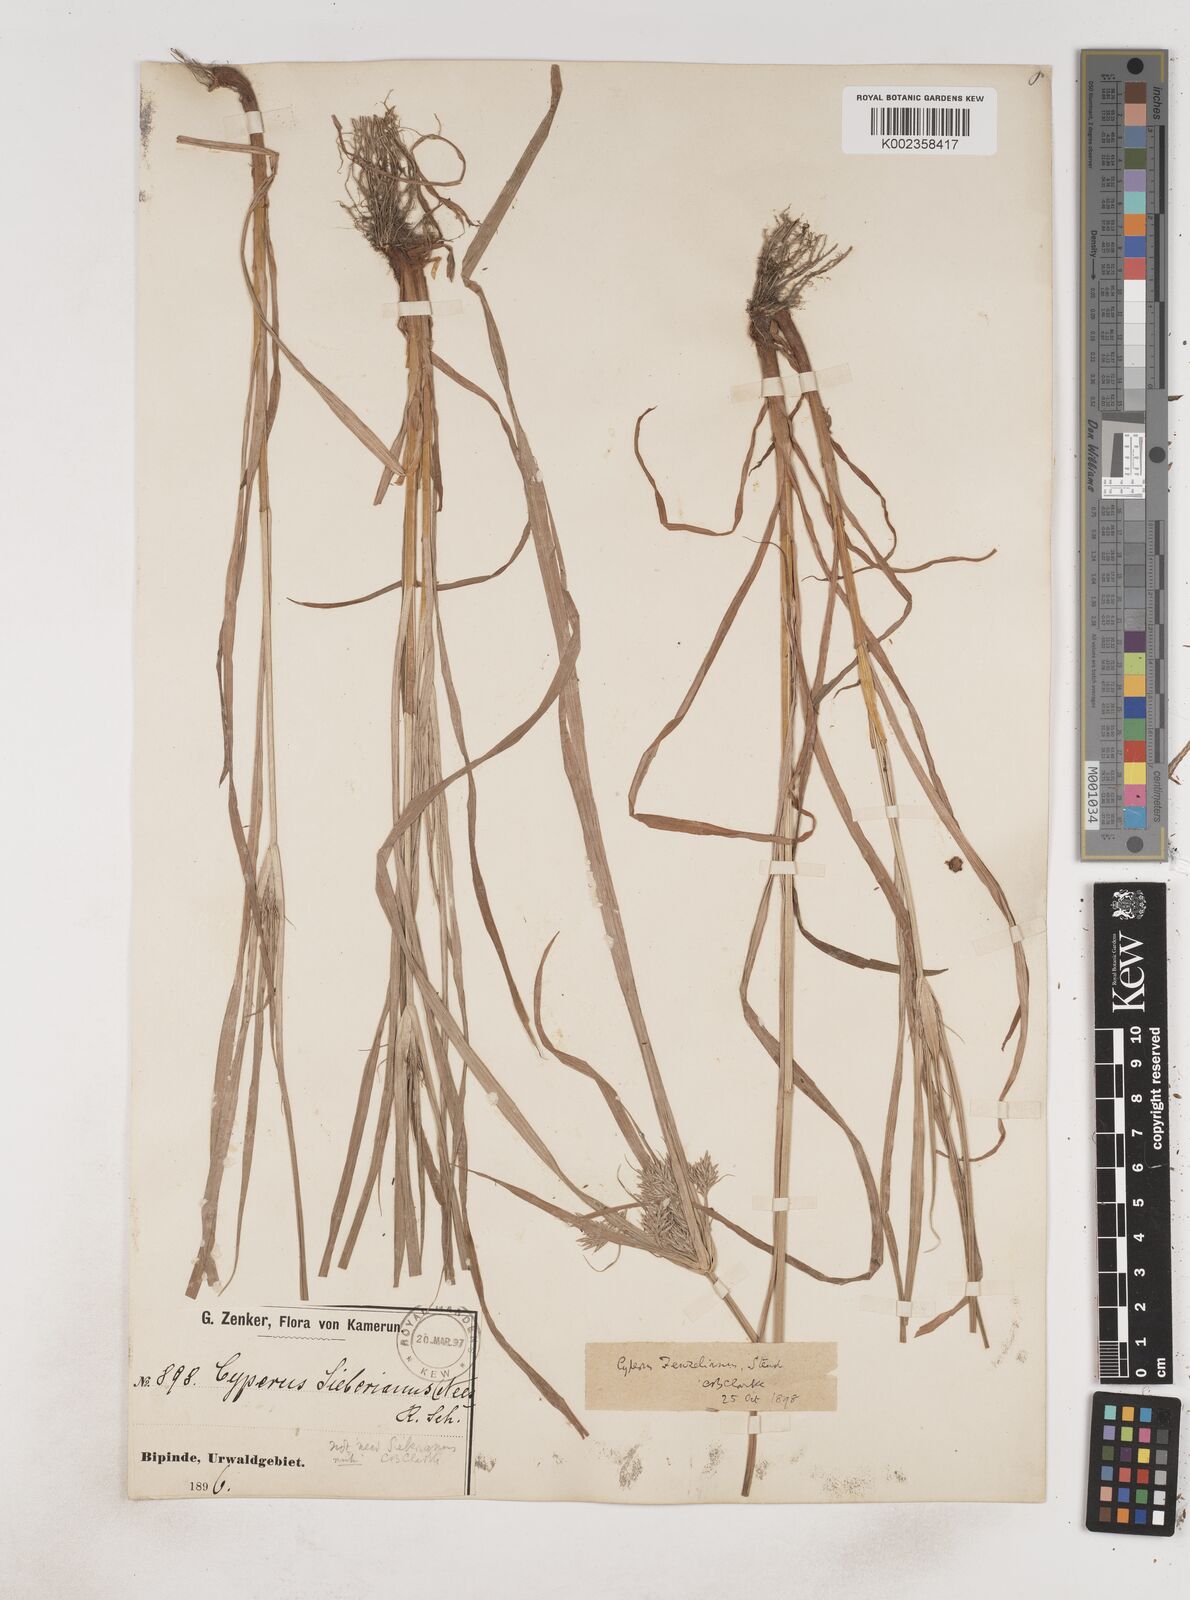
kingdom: Plantae
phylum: Tracheophyta
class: Liliopsida
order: Poales
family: Cyperaceae
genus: Cyperus
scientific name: Cyperus sphacelatus
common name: Roadside flatsedge
